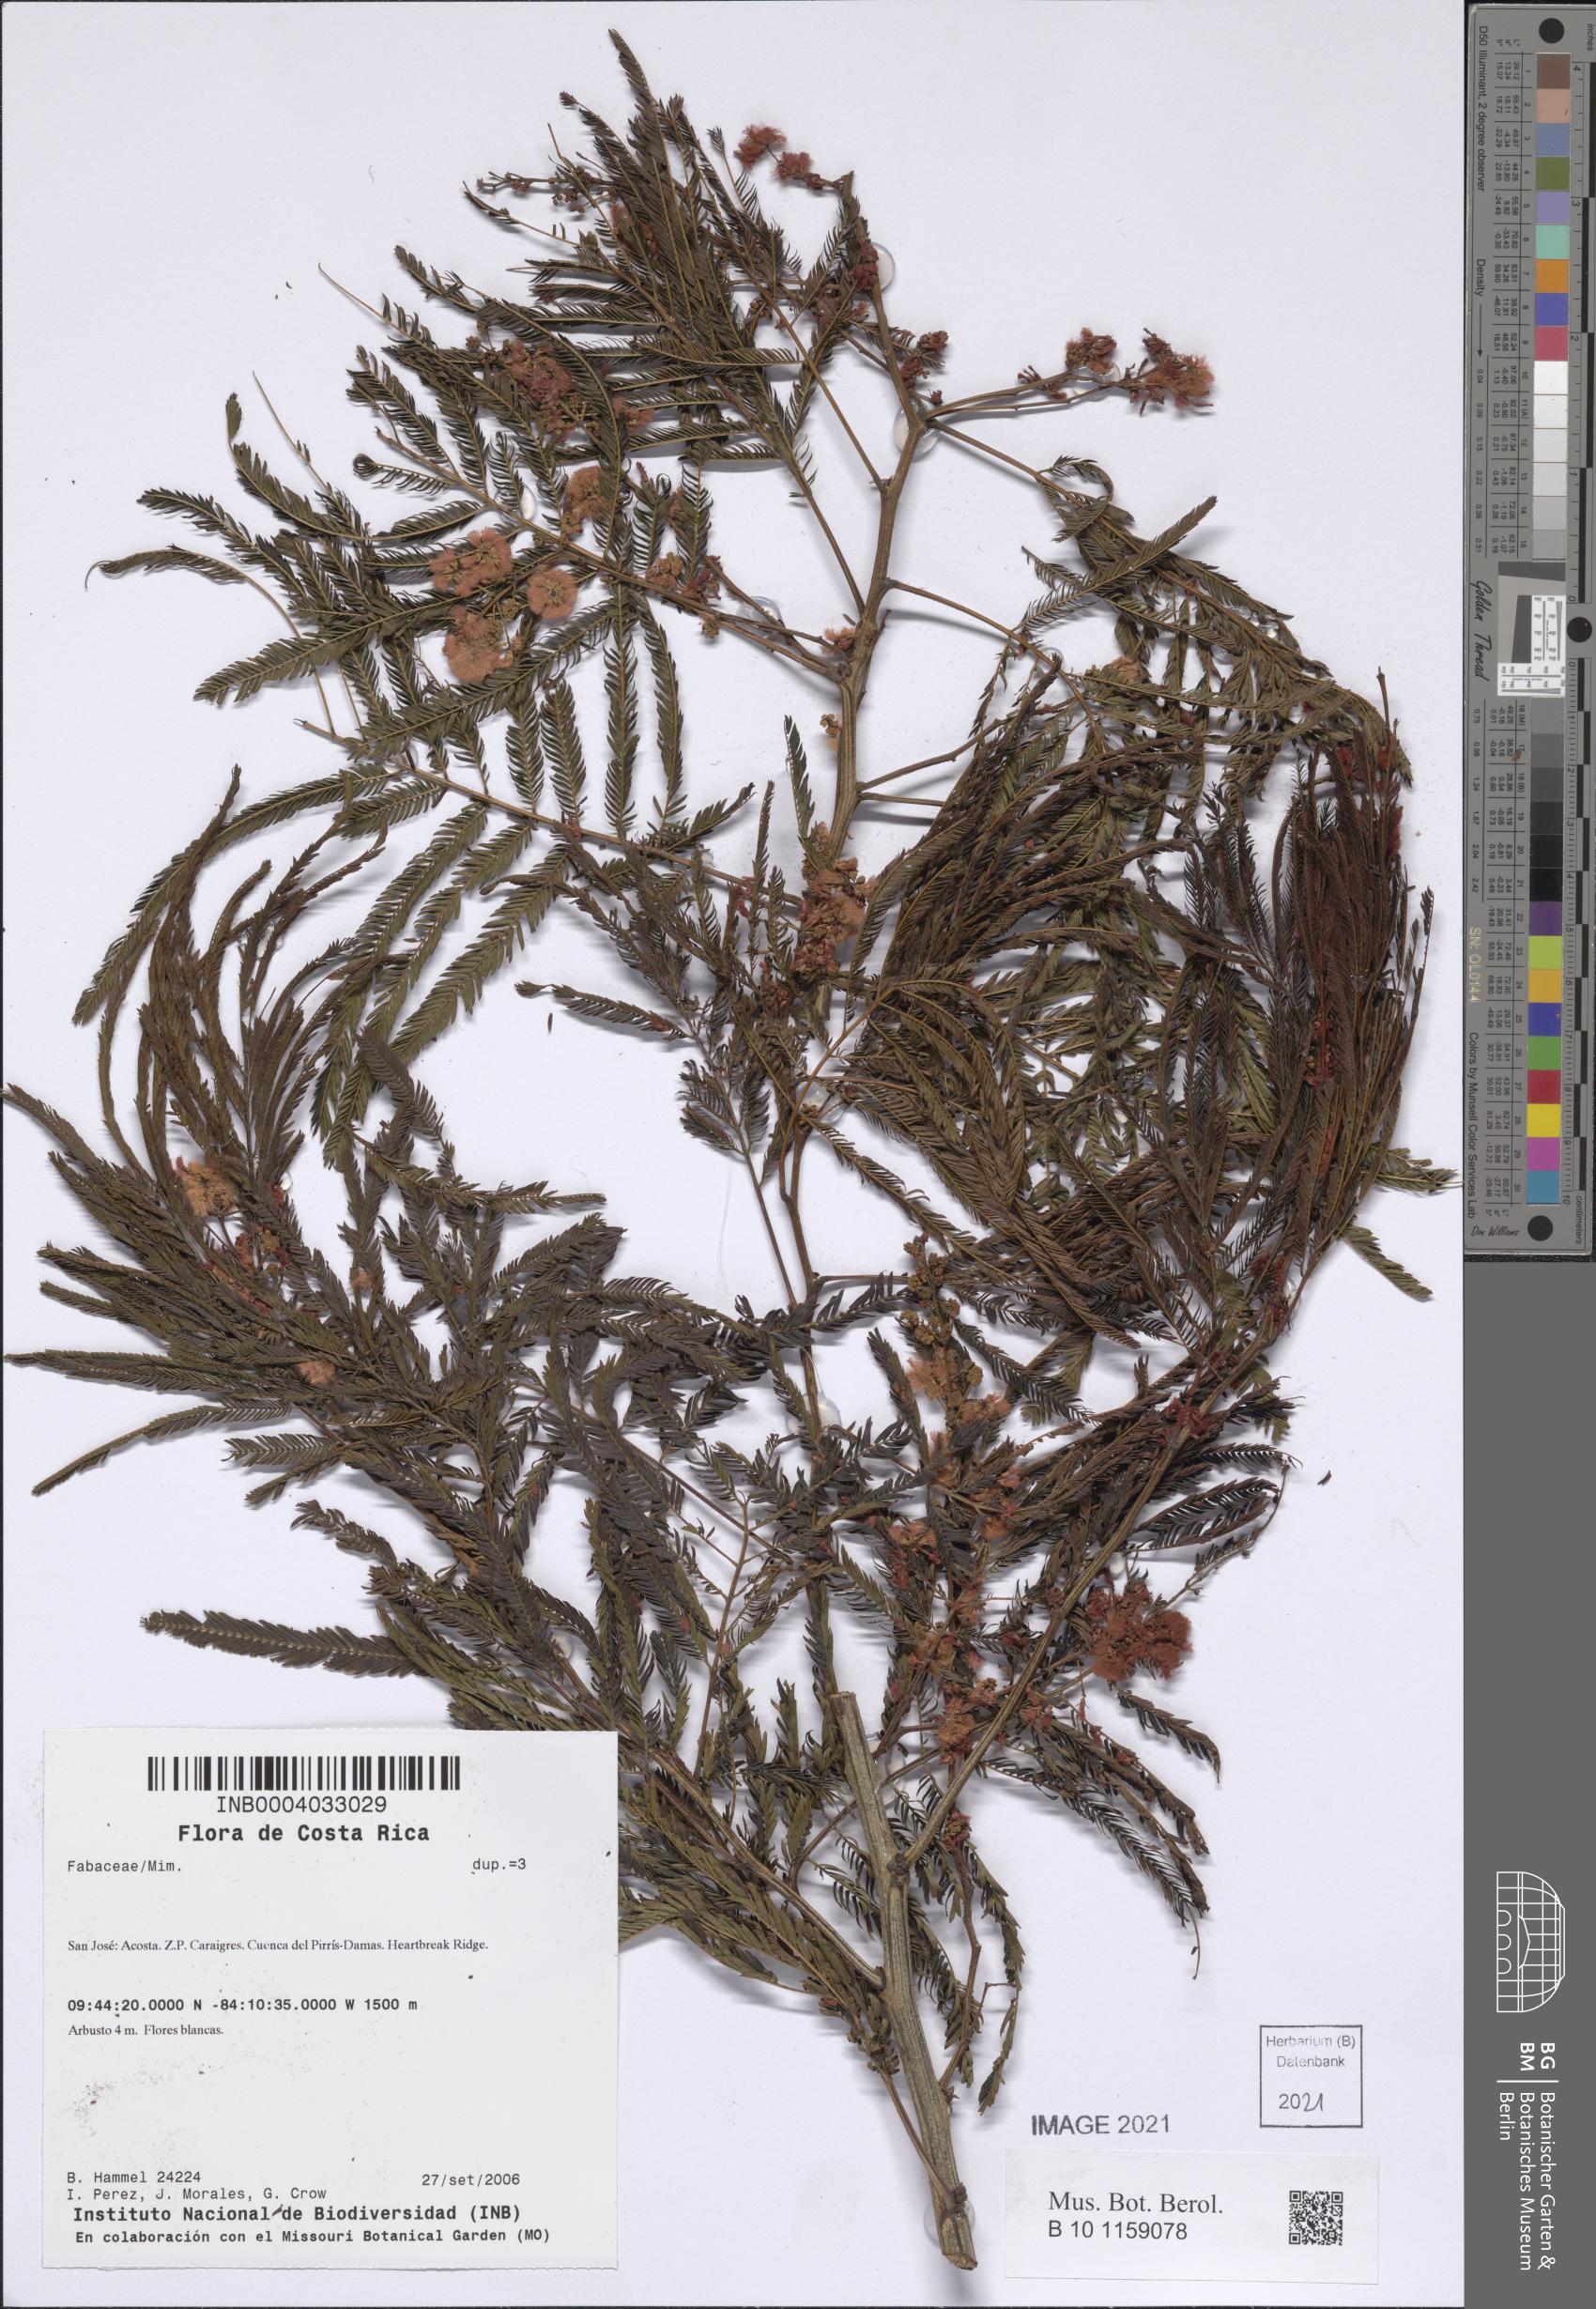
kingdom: Plantae
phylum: Tracheophyta
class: Magnoliopsida
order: Fabales
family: Fabaceae
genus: Acaciella
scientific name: Acaciella angustissima
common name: Prairie acacia
